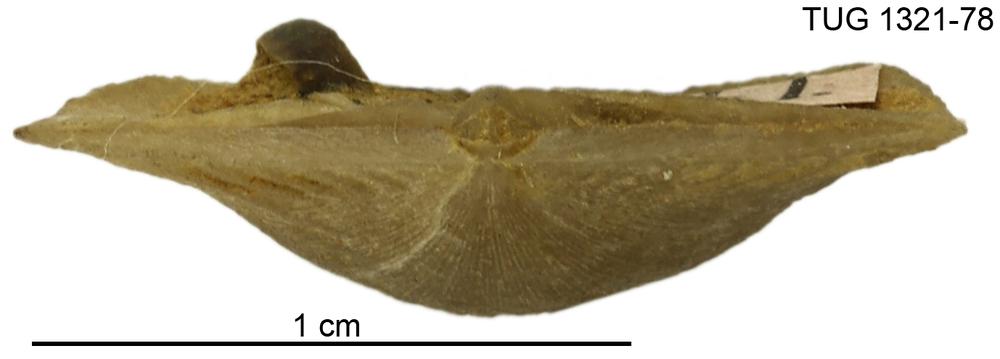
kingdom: Animalia
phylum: Brachiopoda
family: Sowerbyellidae
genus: Sowerbyella
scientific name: Sowerbyella oepiki
